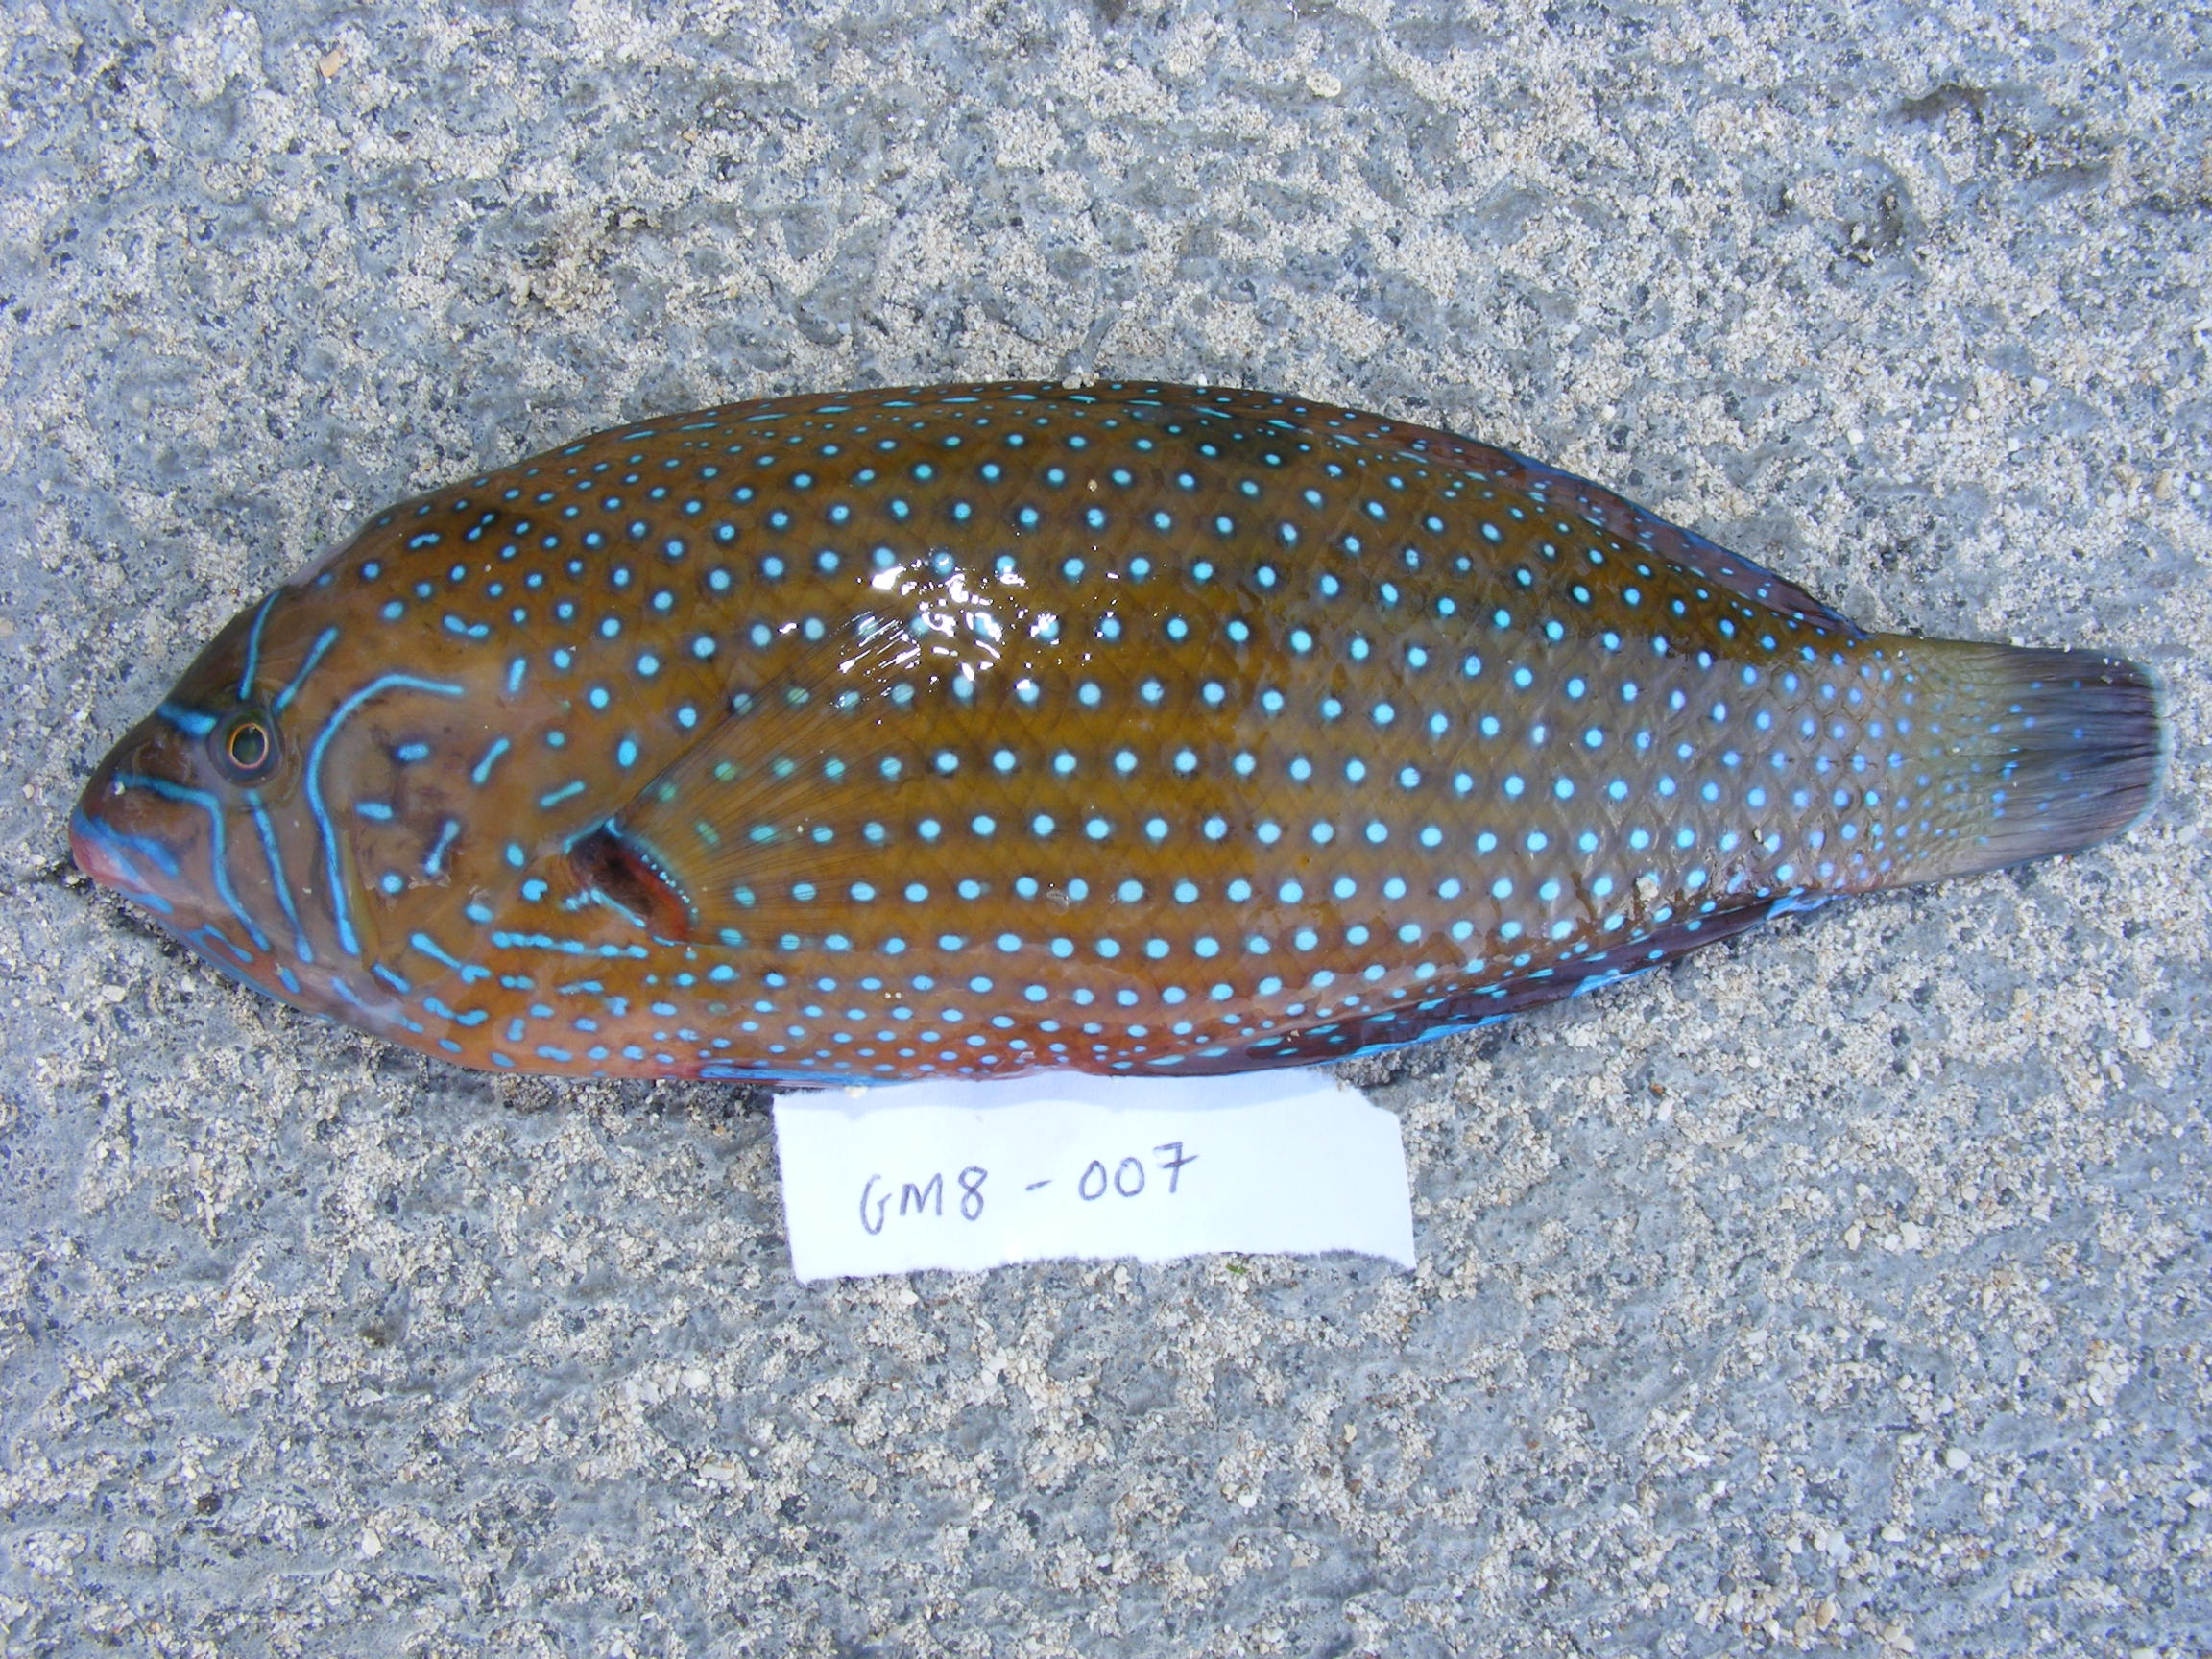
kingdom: Animalia
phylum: Chordata
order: Perciformes
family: Labridae
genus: Anampses
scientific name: Anampses caeruleopunctatus
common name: Bluespotted wrasse
